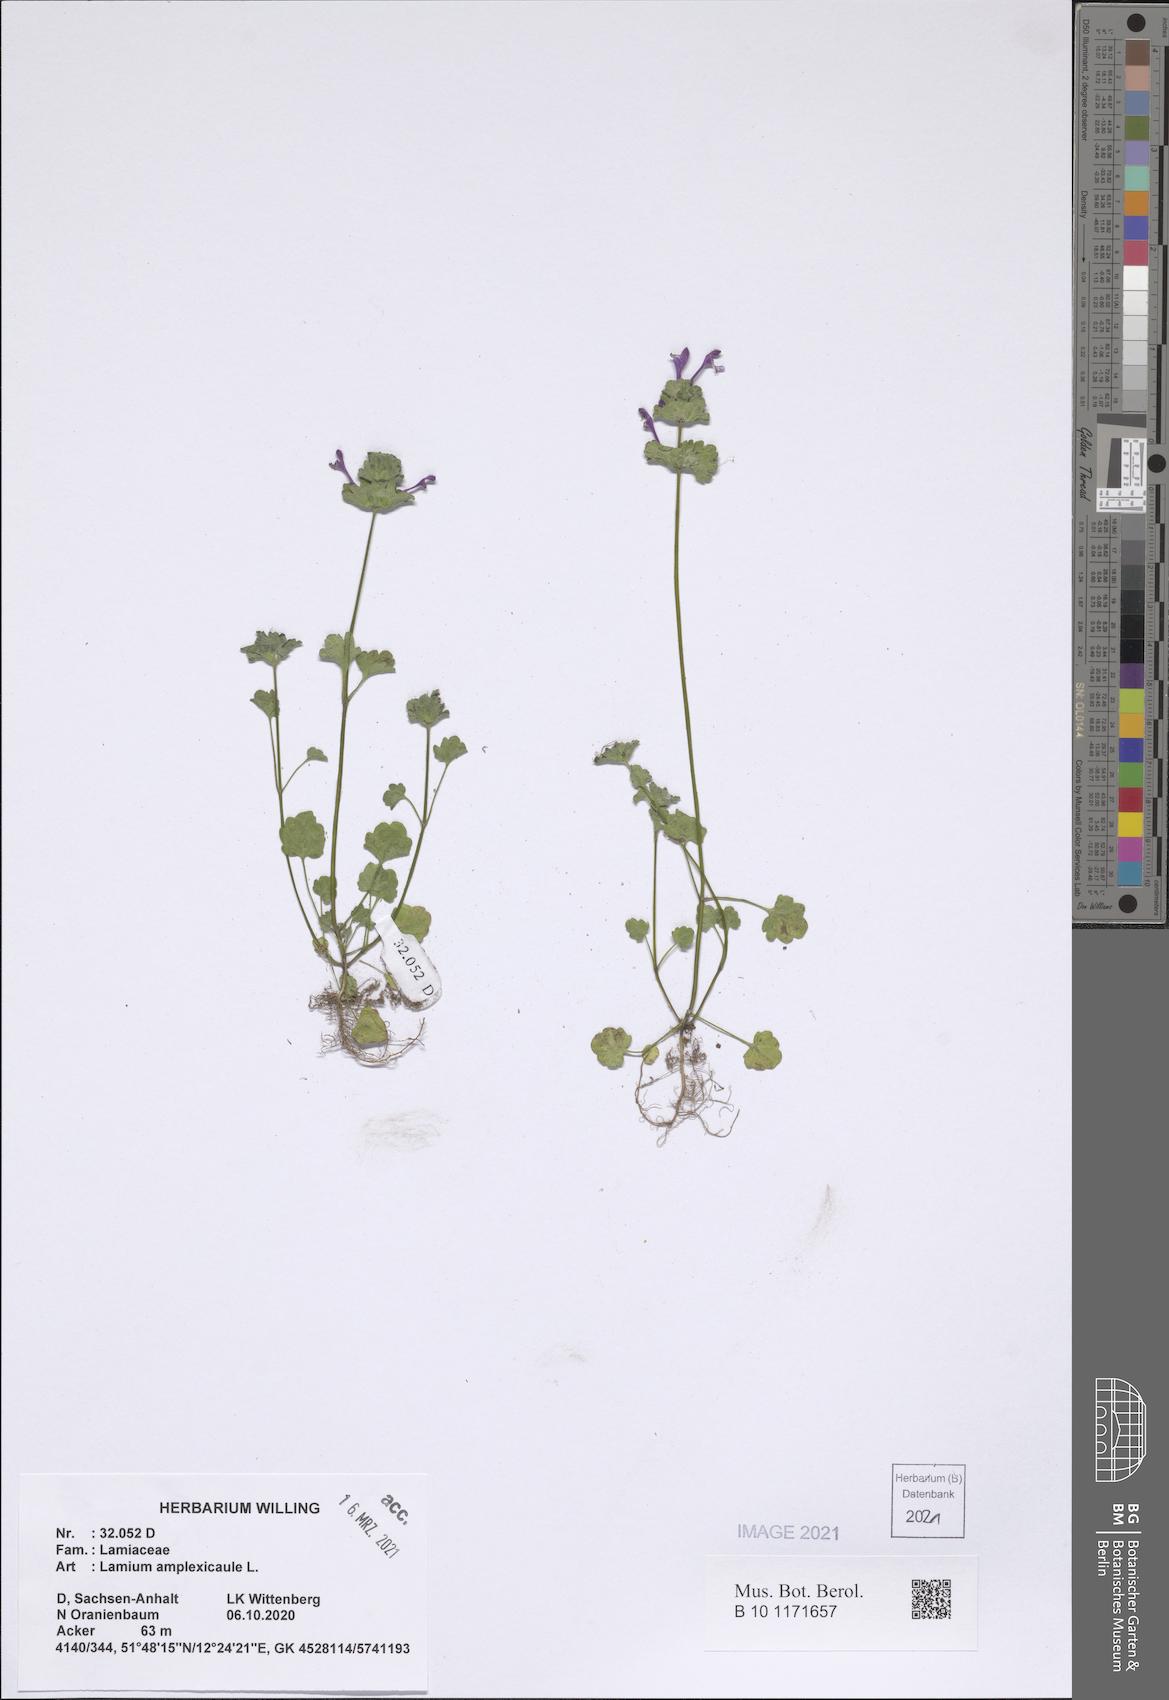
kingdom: Plantae
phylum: Tracheophyta
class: Magnoliopsida
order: Lamiales
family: Lamiaceae
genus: Lamium
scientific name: Lamium amplexicaule
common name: Henbit dead-nettle
